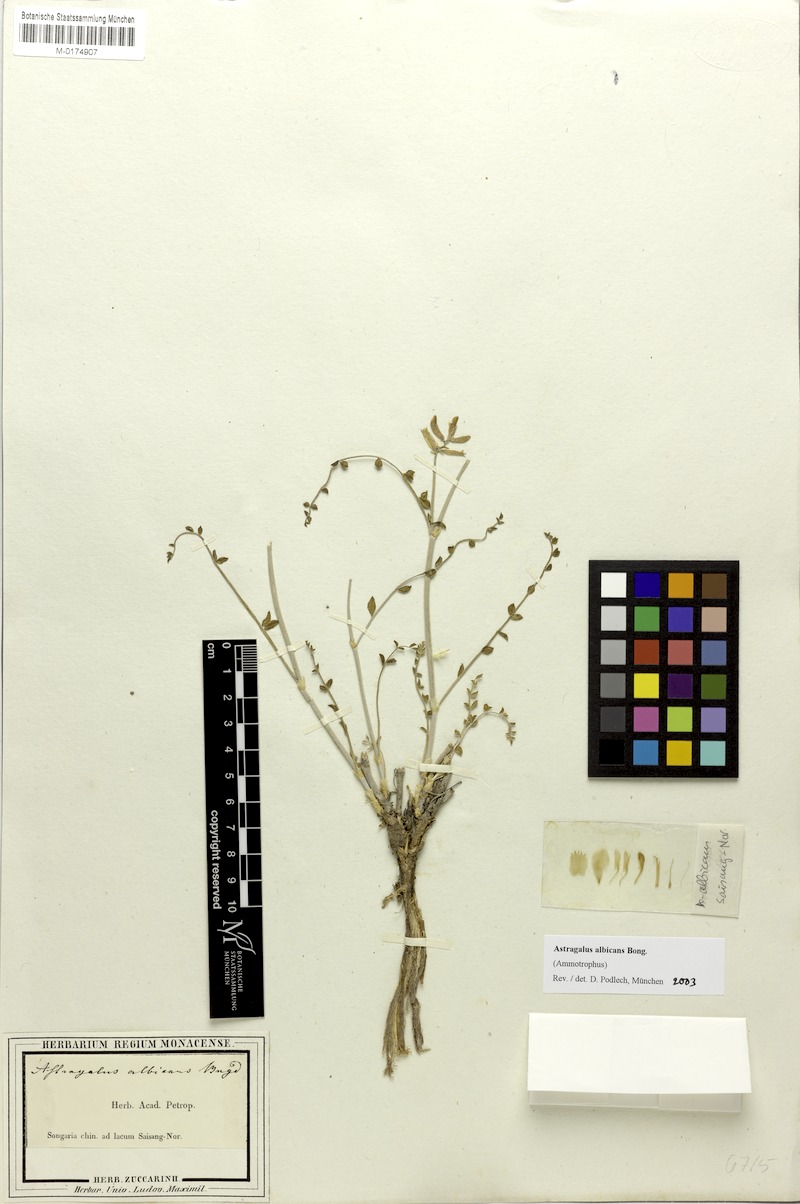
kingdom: Plantae
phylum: Tracheophyta
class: Magnoliopsida
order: Fabales
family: Fabaceae
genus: Astragalus
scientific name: Astragalus albicans
